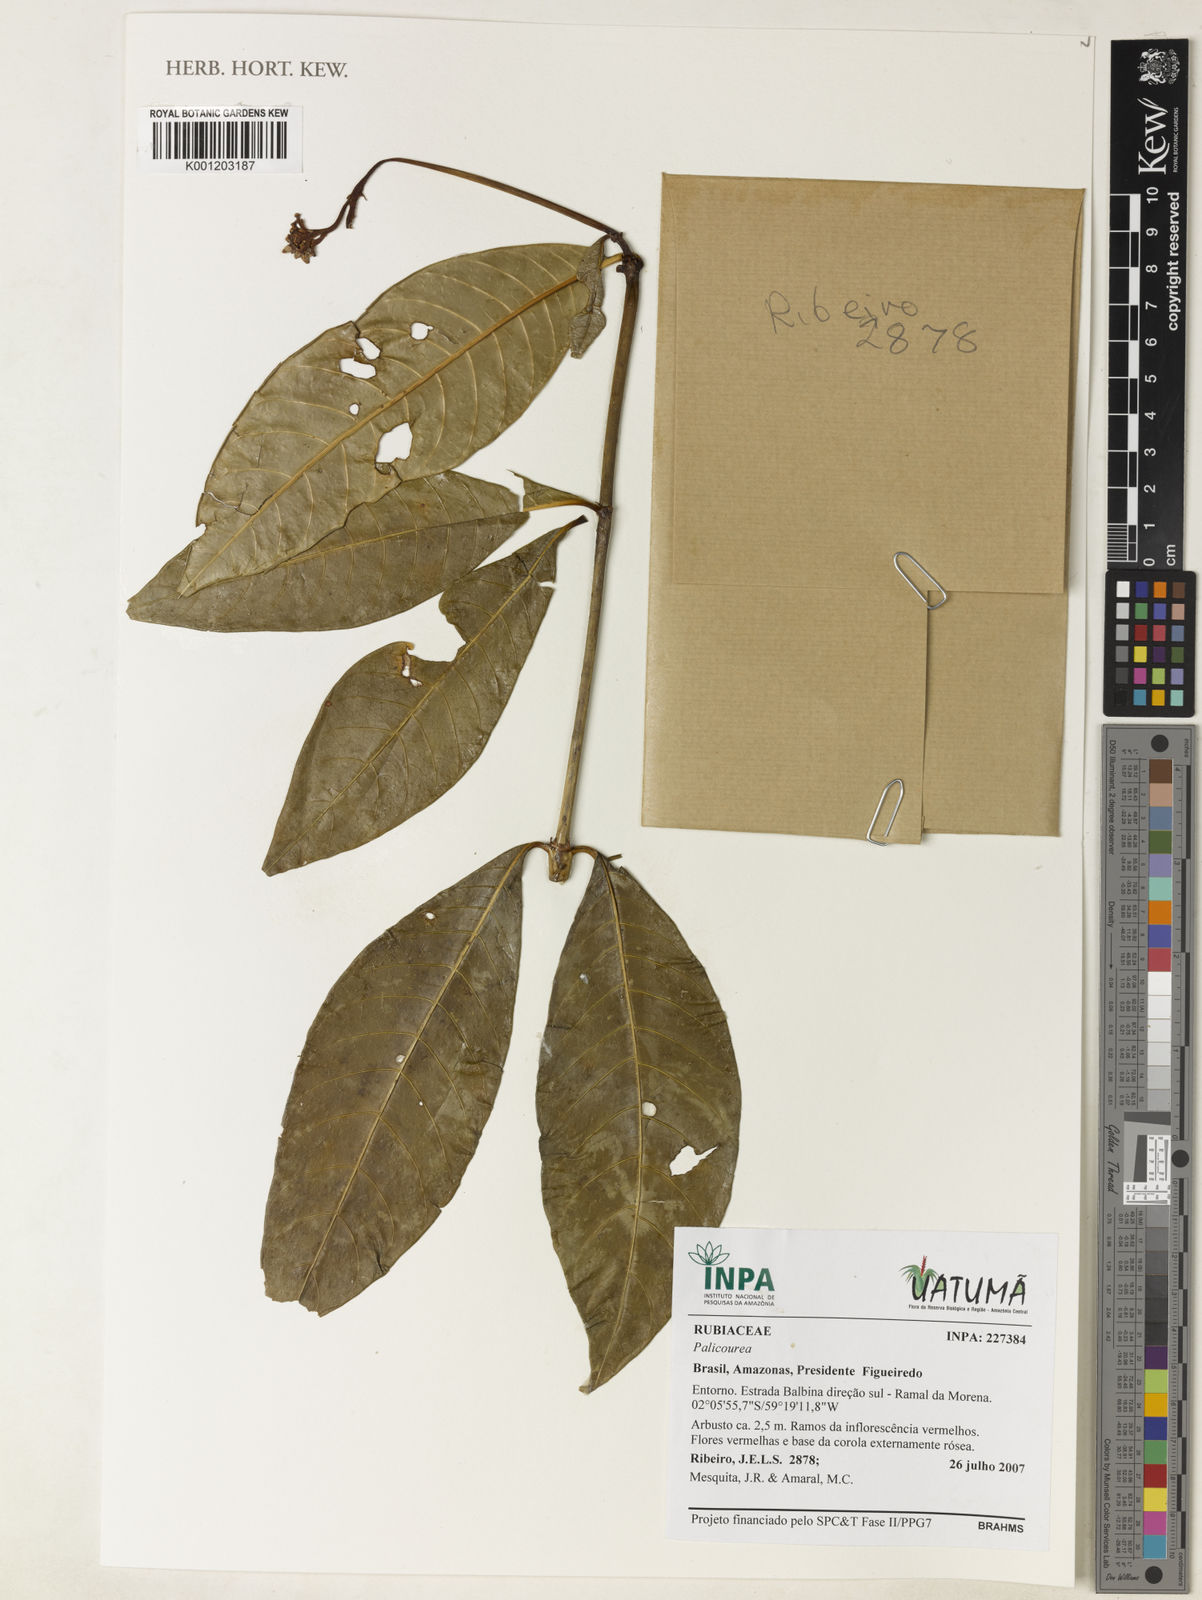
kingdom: Plantae
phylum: Tracheophyta
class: Magnoliopsida
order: Gentianales
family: Rubiaceae
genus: Palicourea
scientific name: Palicourea
